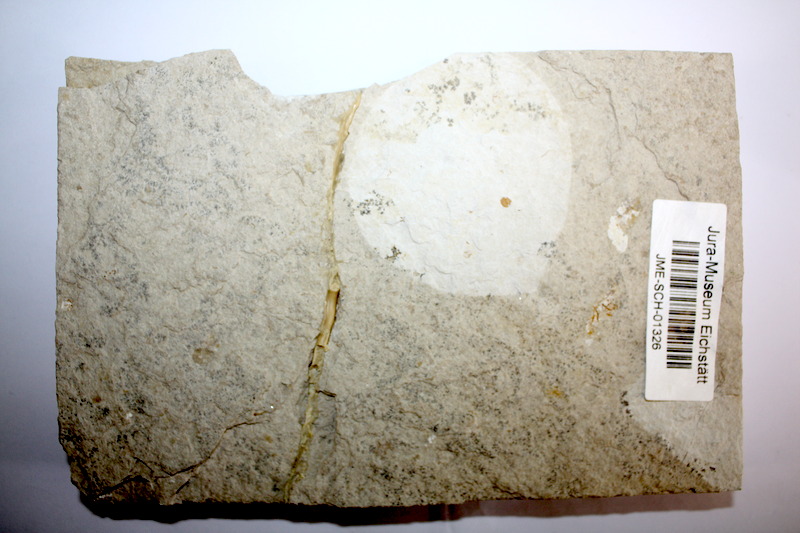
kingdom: Animalia
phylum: Chordata
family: Ascalaboidae
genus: Tharsis
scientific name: Tharsis dubius
